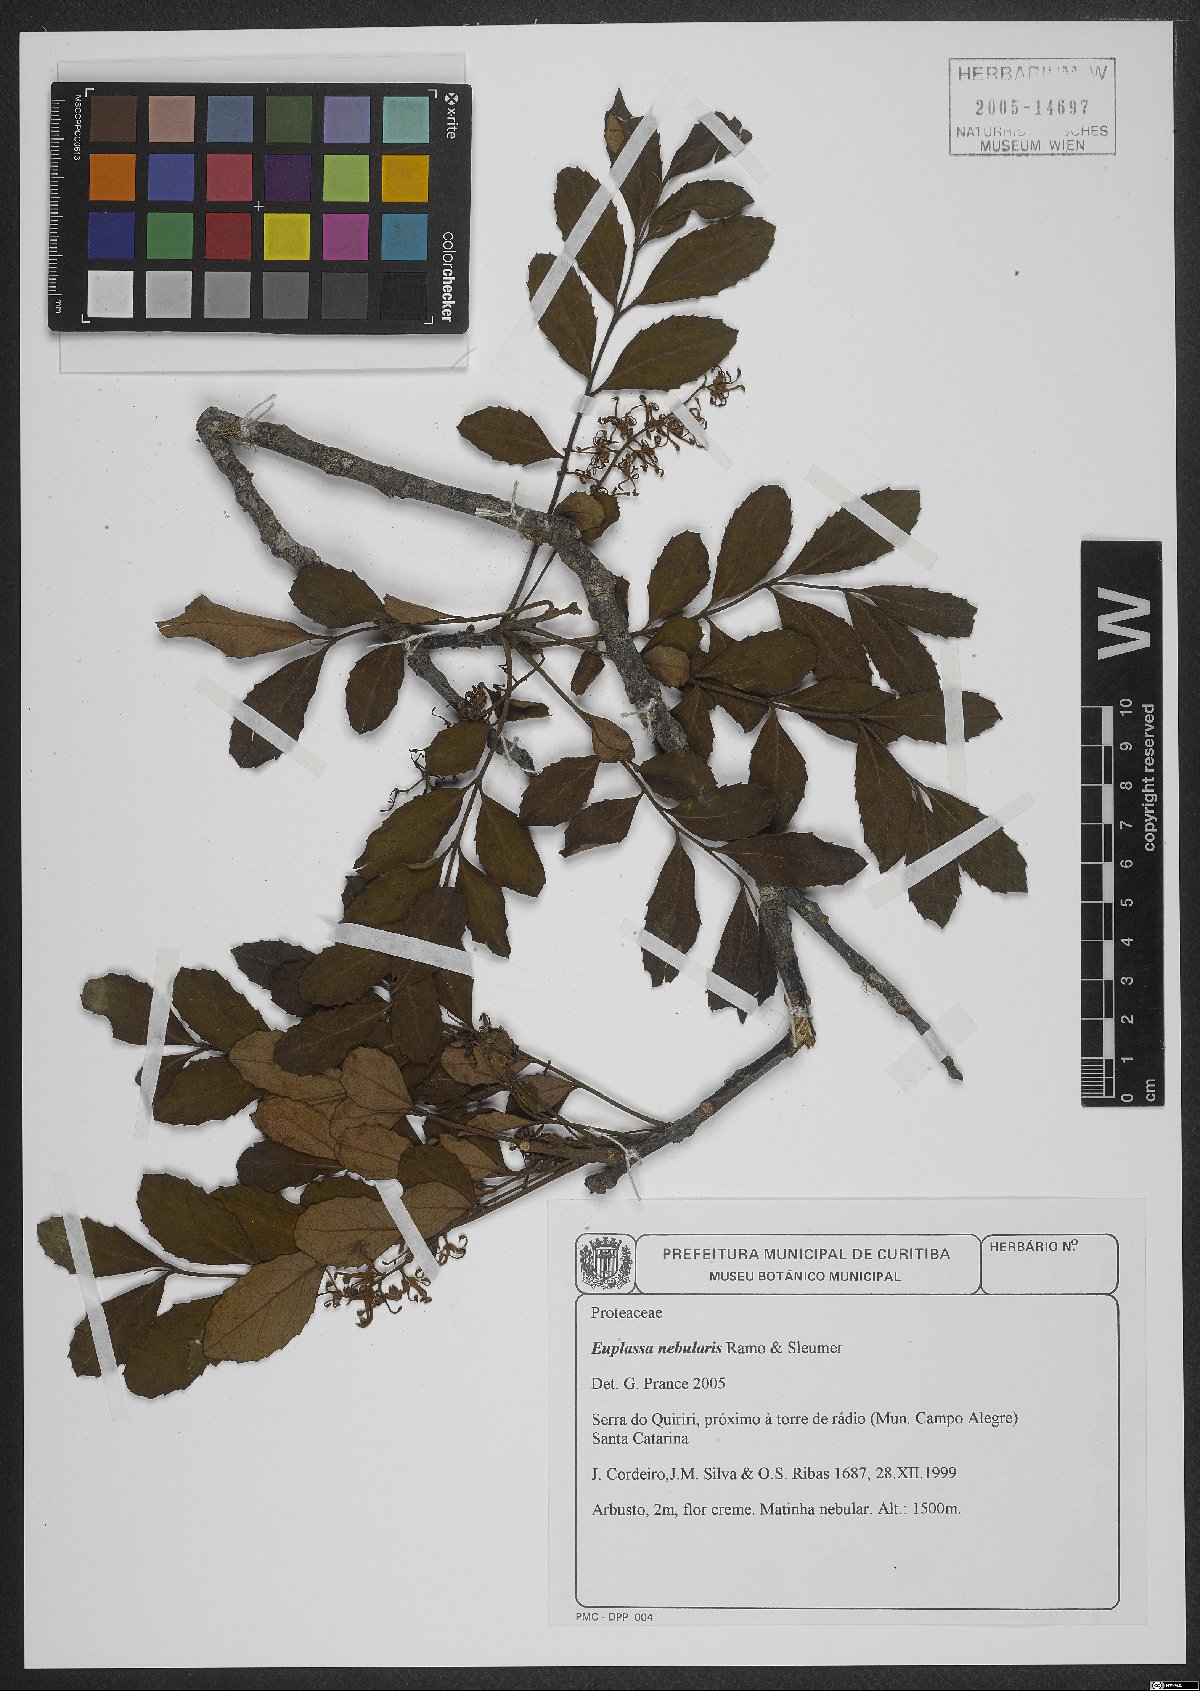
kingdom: Plantae
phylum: Tracheophyta
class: Magnoliopsida
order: Proteales
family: Proteaceae
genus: Euplassa
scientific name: Euplassa nebularis
